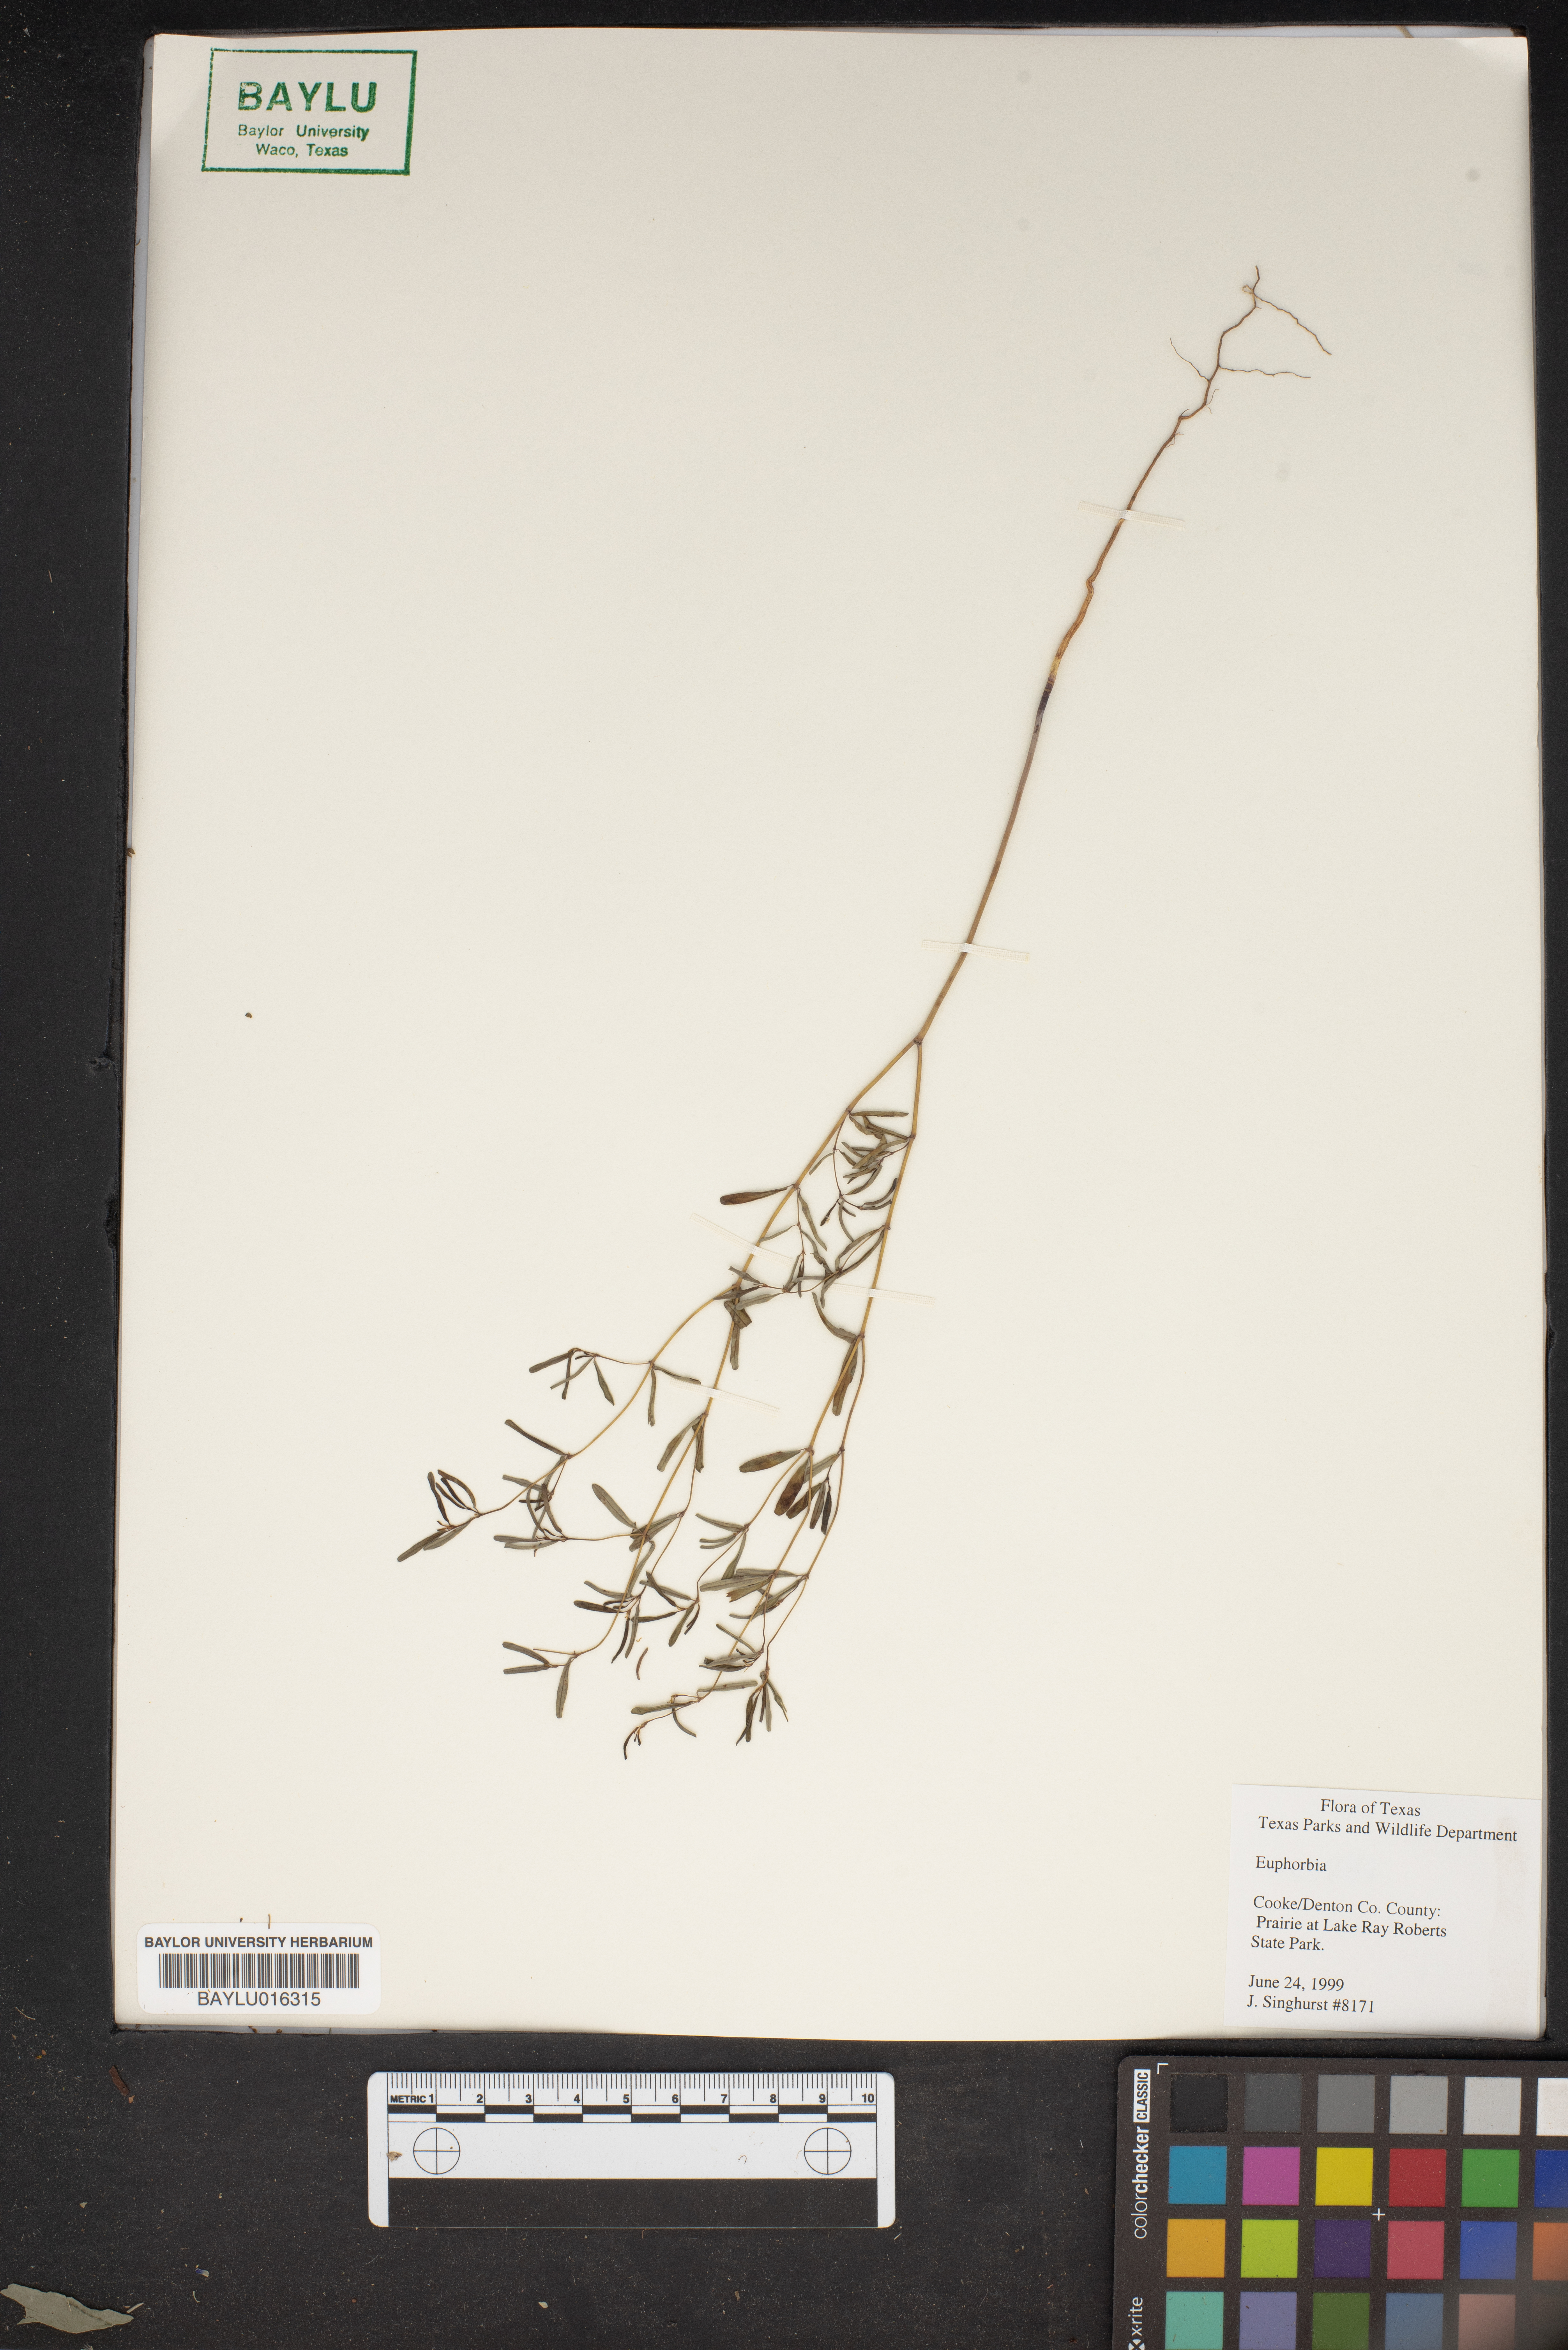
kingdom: Plantae
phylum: Tracheophyta
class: Magnoliopsida
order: Malpighiales
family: Euphorbiaceae
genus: Euphorbia
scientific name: Euphorbia
